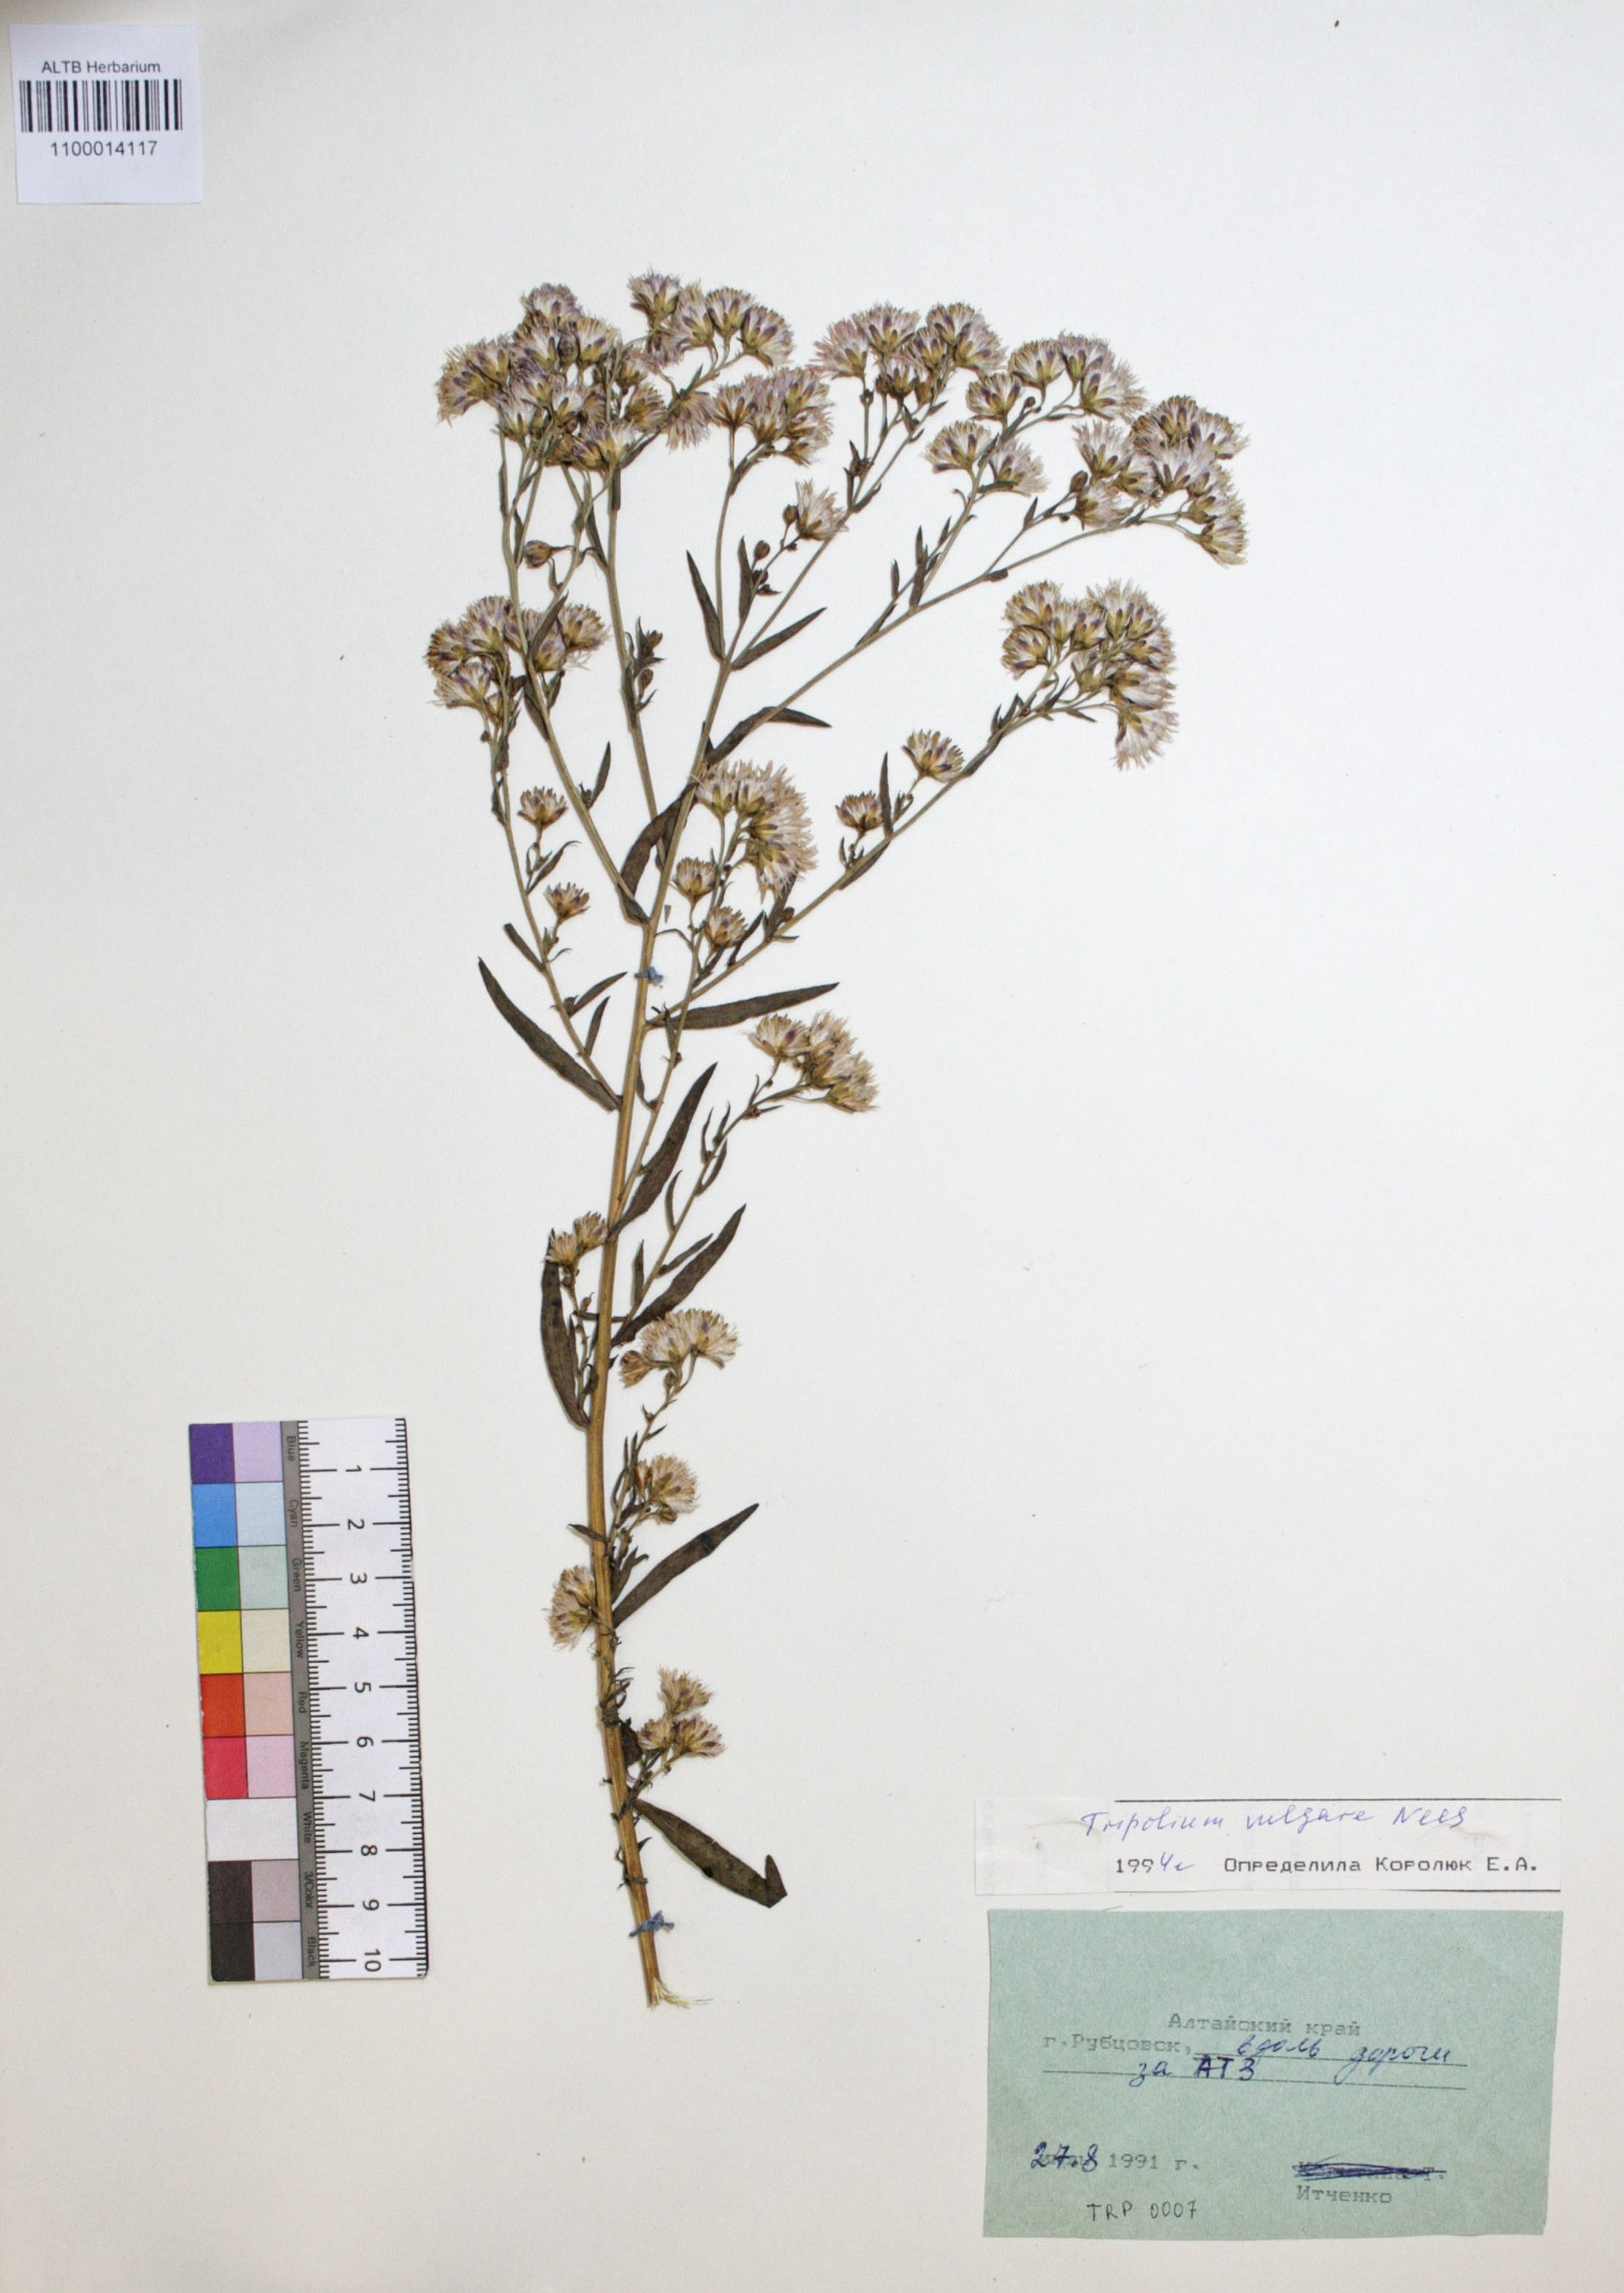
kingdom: Plantae
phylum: Tracheophyta
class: Magnoliopsida
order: Asterales
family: Asteraceae
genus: Tripolium
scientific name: Tripolium pannonicum
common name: Sea aster
